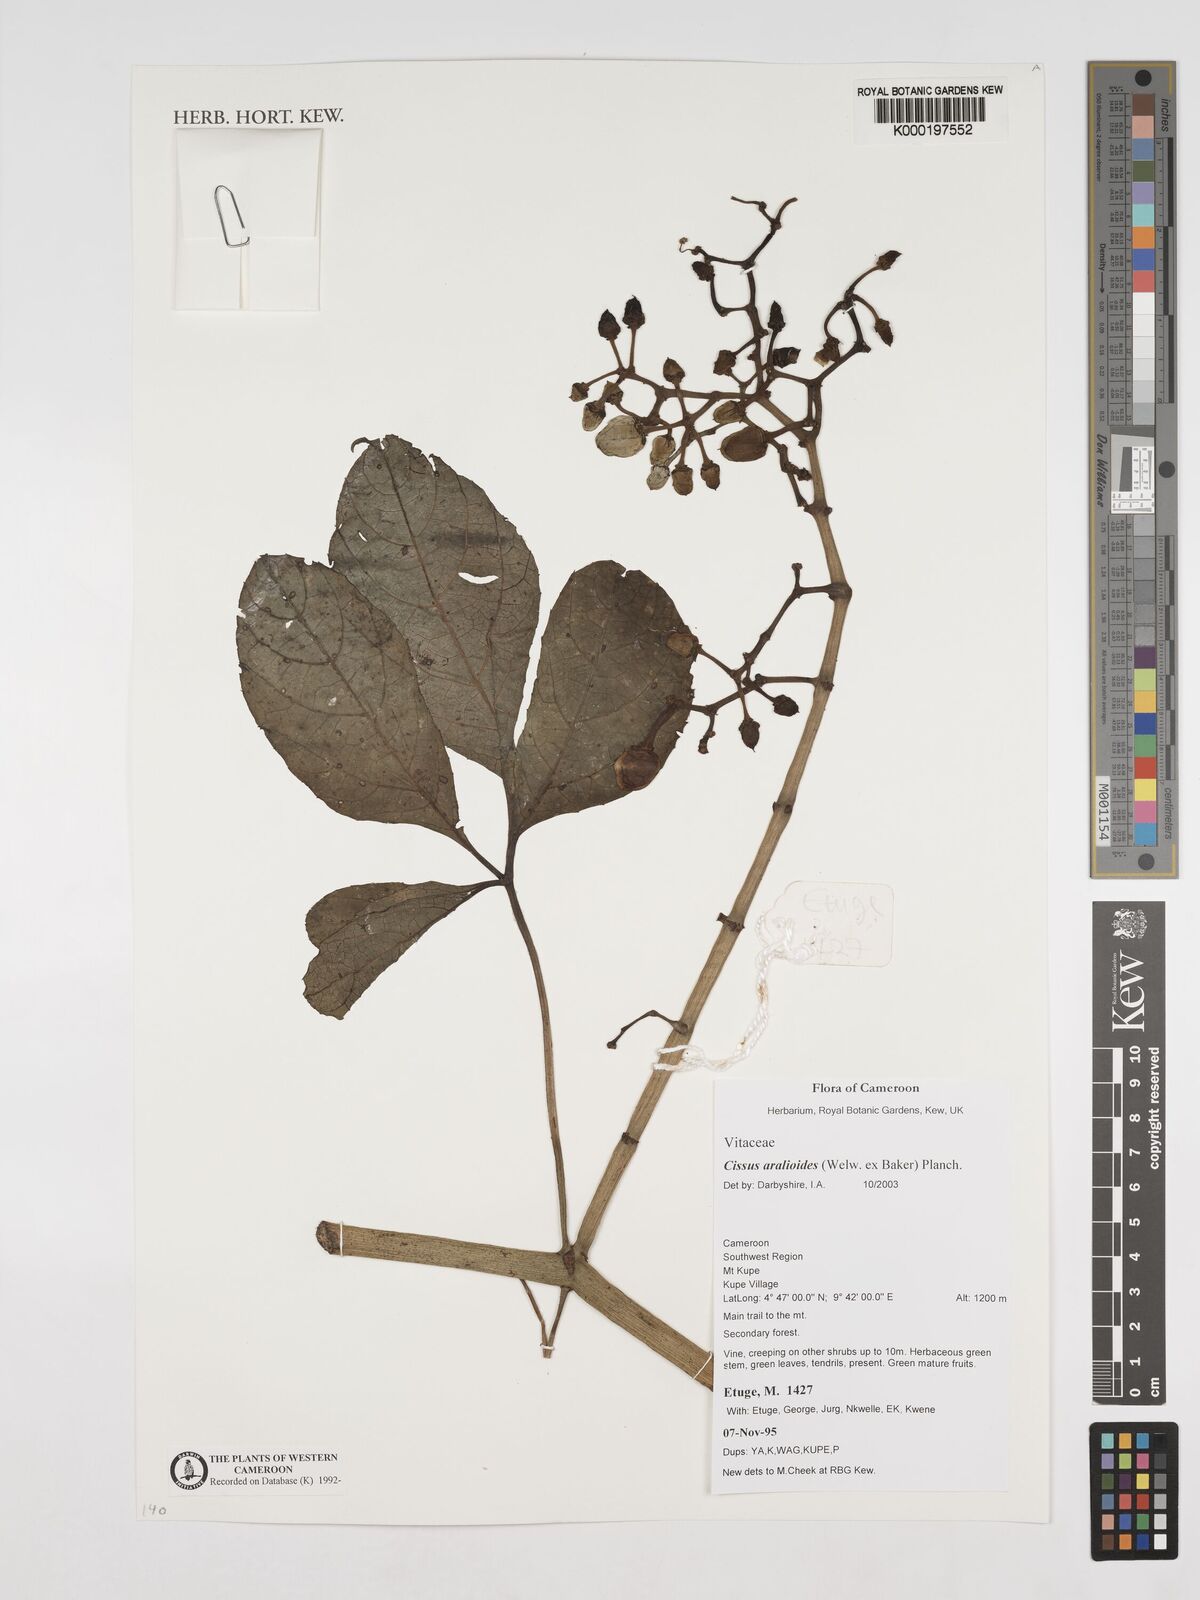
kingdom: Plantae
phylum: Tracheophyta
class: Magnoliopsida
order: Vitales
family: Vitaceae
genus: Cissus
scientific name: Cissus aralioides
